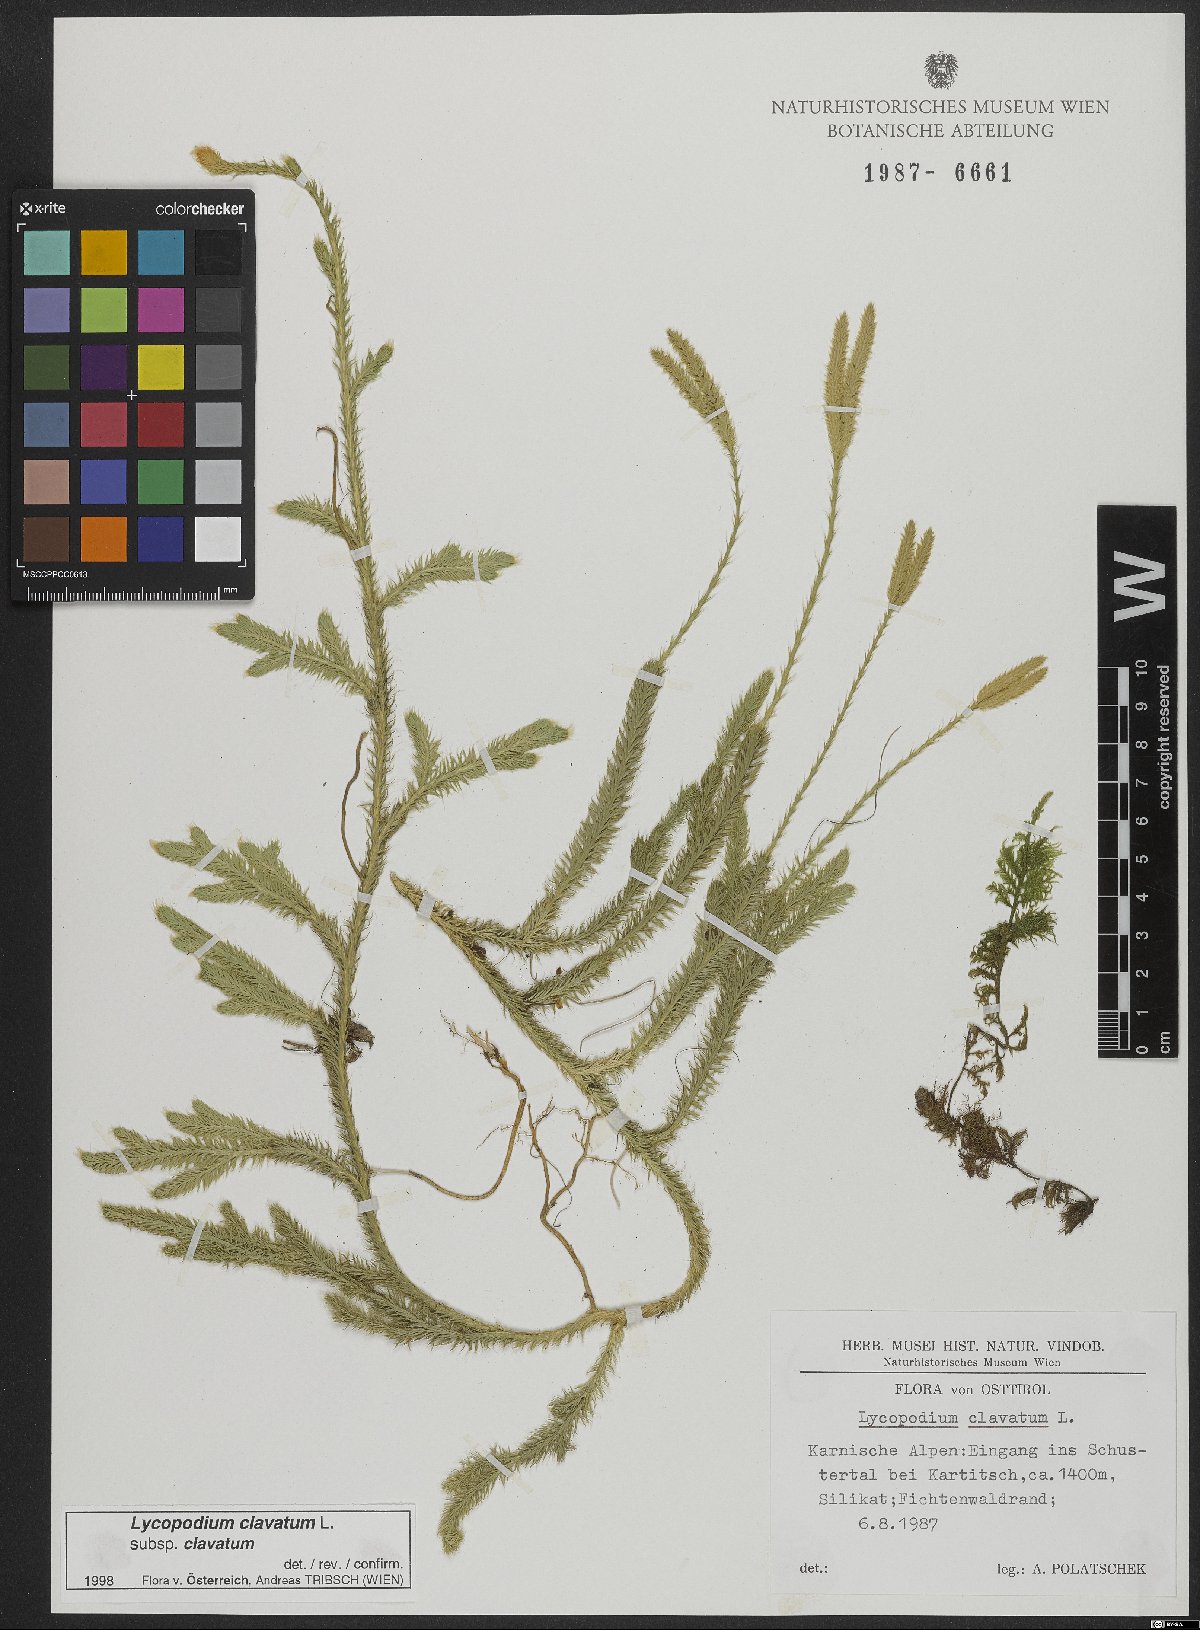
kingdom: Plantae
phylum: Tracheophyta
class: Lycopodiopsida
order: Lycopodiales
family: Lycopodiaceae
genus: Lycopodium
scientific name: Lycopodium clavatum
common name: Stag's-horn clubmoss
